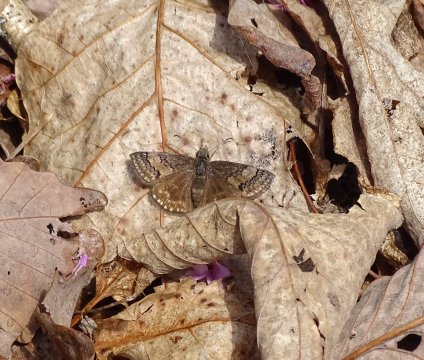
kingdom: Animalia
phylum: Arthropoda
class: Insecta
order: Lepidoptera
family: Hesperiidae
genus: Erynnis
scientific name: Erynnis brizo
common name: Sleepy Duskywing
